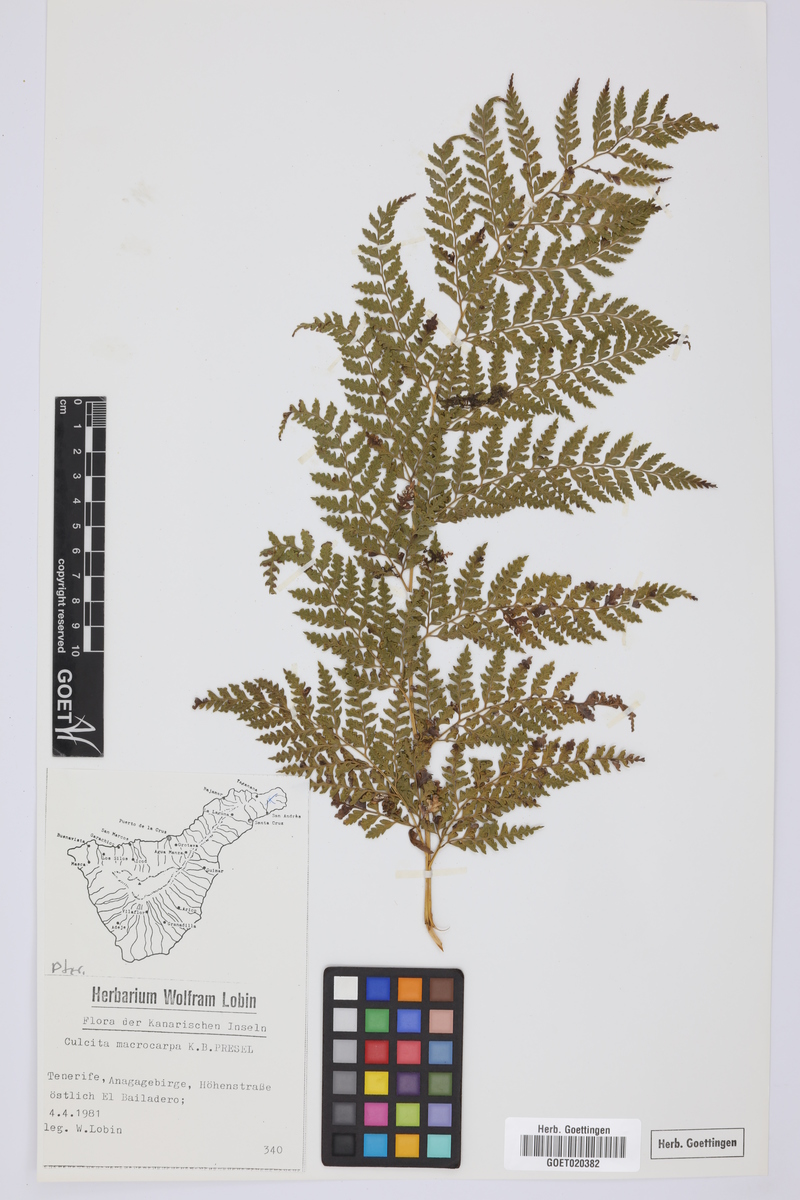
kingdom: Plantae
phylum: Tracheophyta
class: Polypodiopsida
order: Cyatheales
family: Culcitaceae
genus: Culcita
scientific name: Culcita macrocarpa
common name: Woolly tree fern
